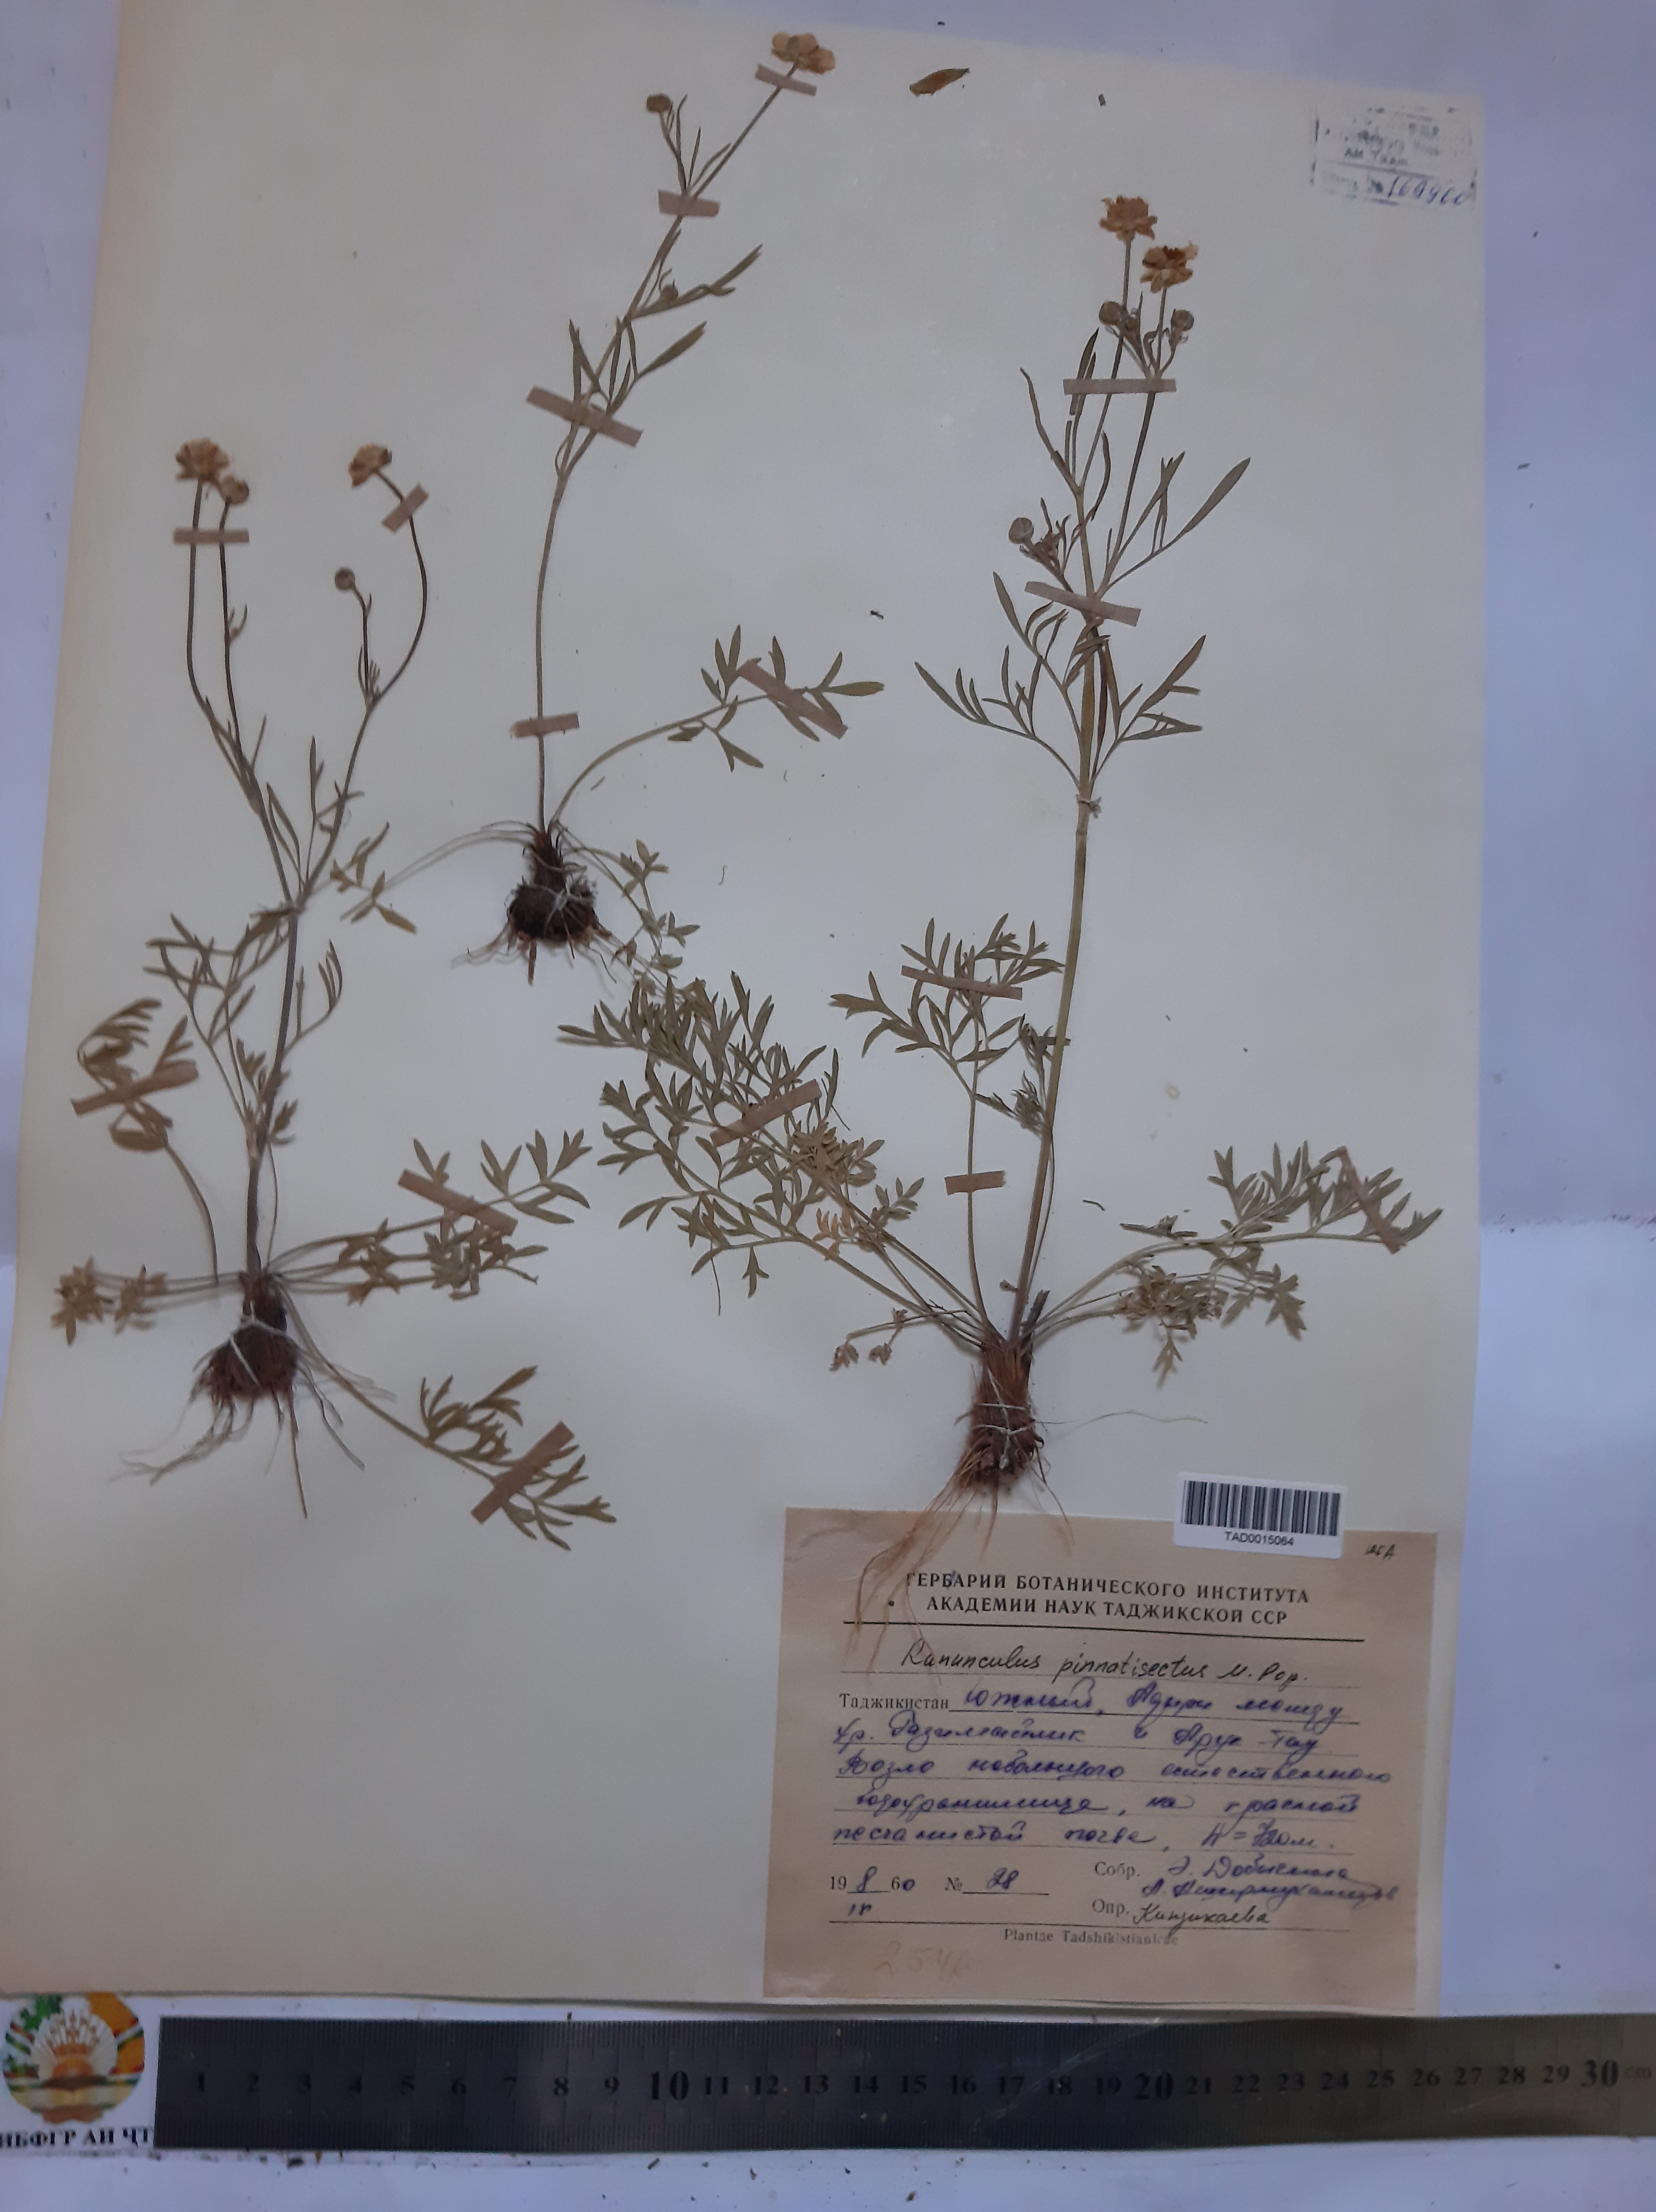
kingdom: Plantae
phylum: Tracheophyta
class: Magnoliopsida
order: Ranunculales
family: Ranunculaceae
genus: Ranunculus
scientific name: Ranunculus pinnatisectus
